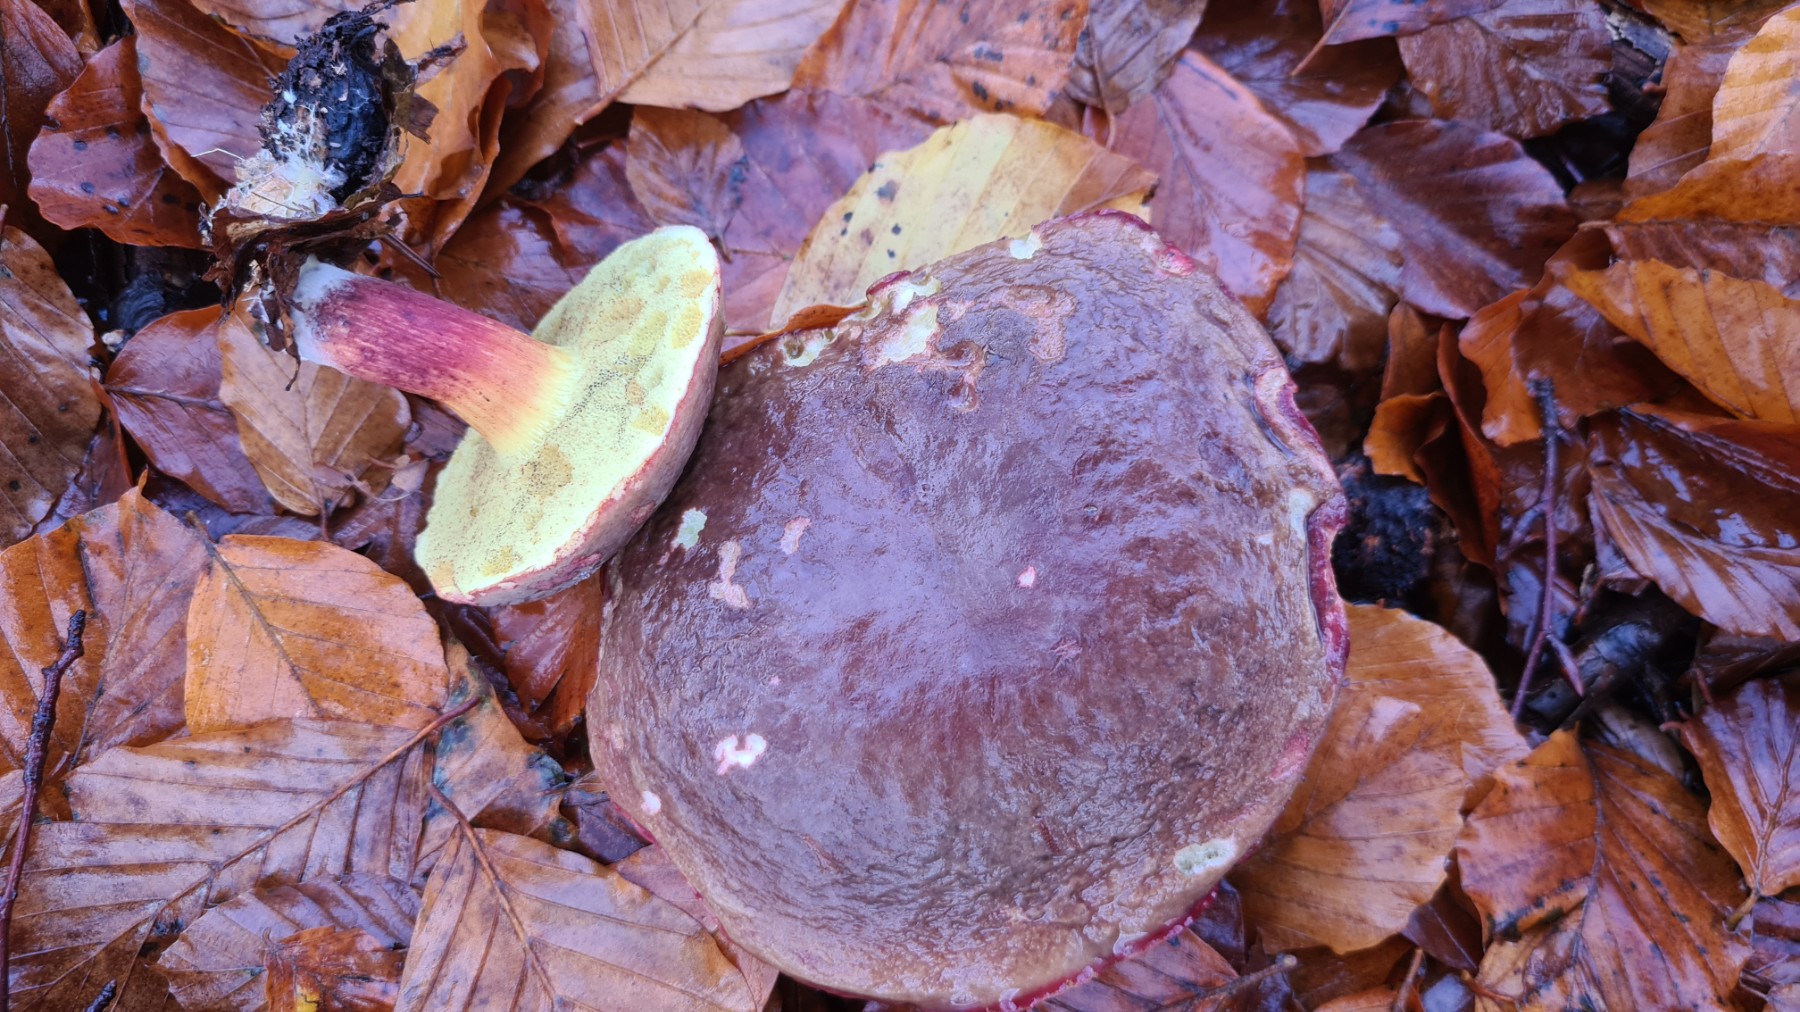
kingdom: Fungi
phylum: Basidiomycota
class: Agaricomycetes
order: Boletales
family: Boletaceae
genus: Xerocomellus
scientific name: Xerocomellus pruinatus
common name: dugget rørhat
